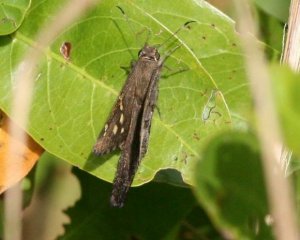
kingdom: Animalia
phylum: Arthropoda
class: Insecta
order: Lepidoptera
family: Hesperiidae
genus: Urbanus
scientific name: Urbanus dorantes
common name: Dorantes Longtail
